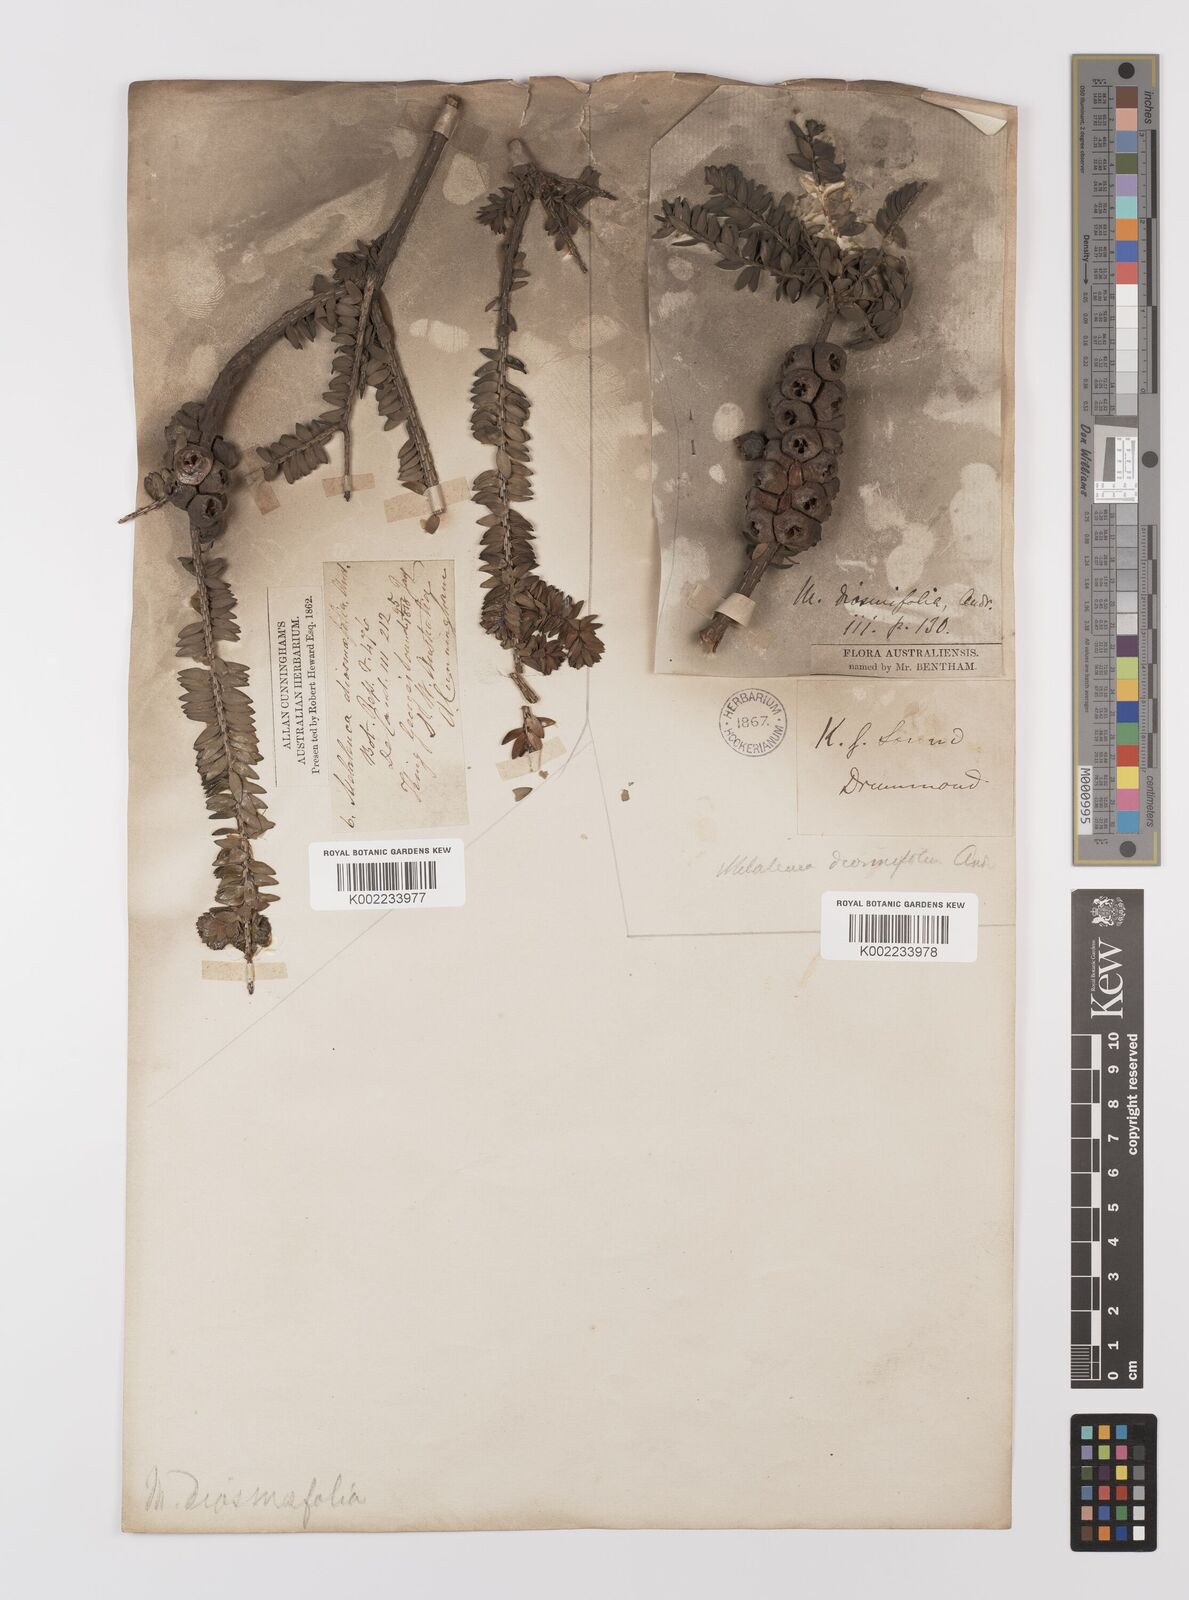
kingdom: Plantae
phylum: Tracheophyta
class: Magnoliopsida
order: Myrtales
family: Myrtaceae
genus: Melaleuca
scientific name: Melaleuca diosmifolia
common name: Green honey myrtle
